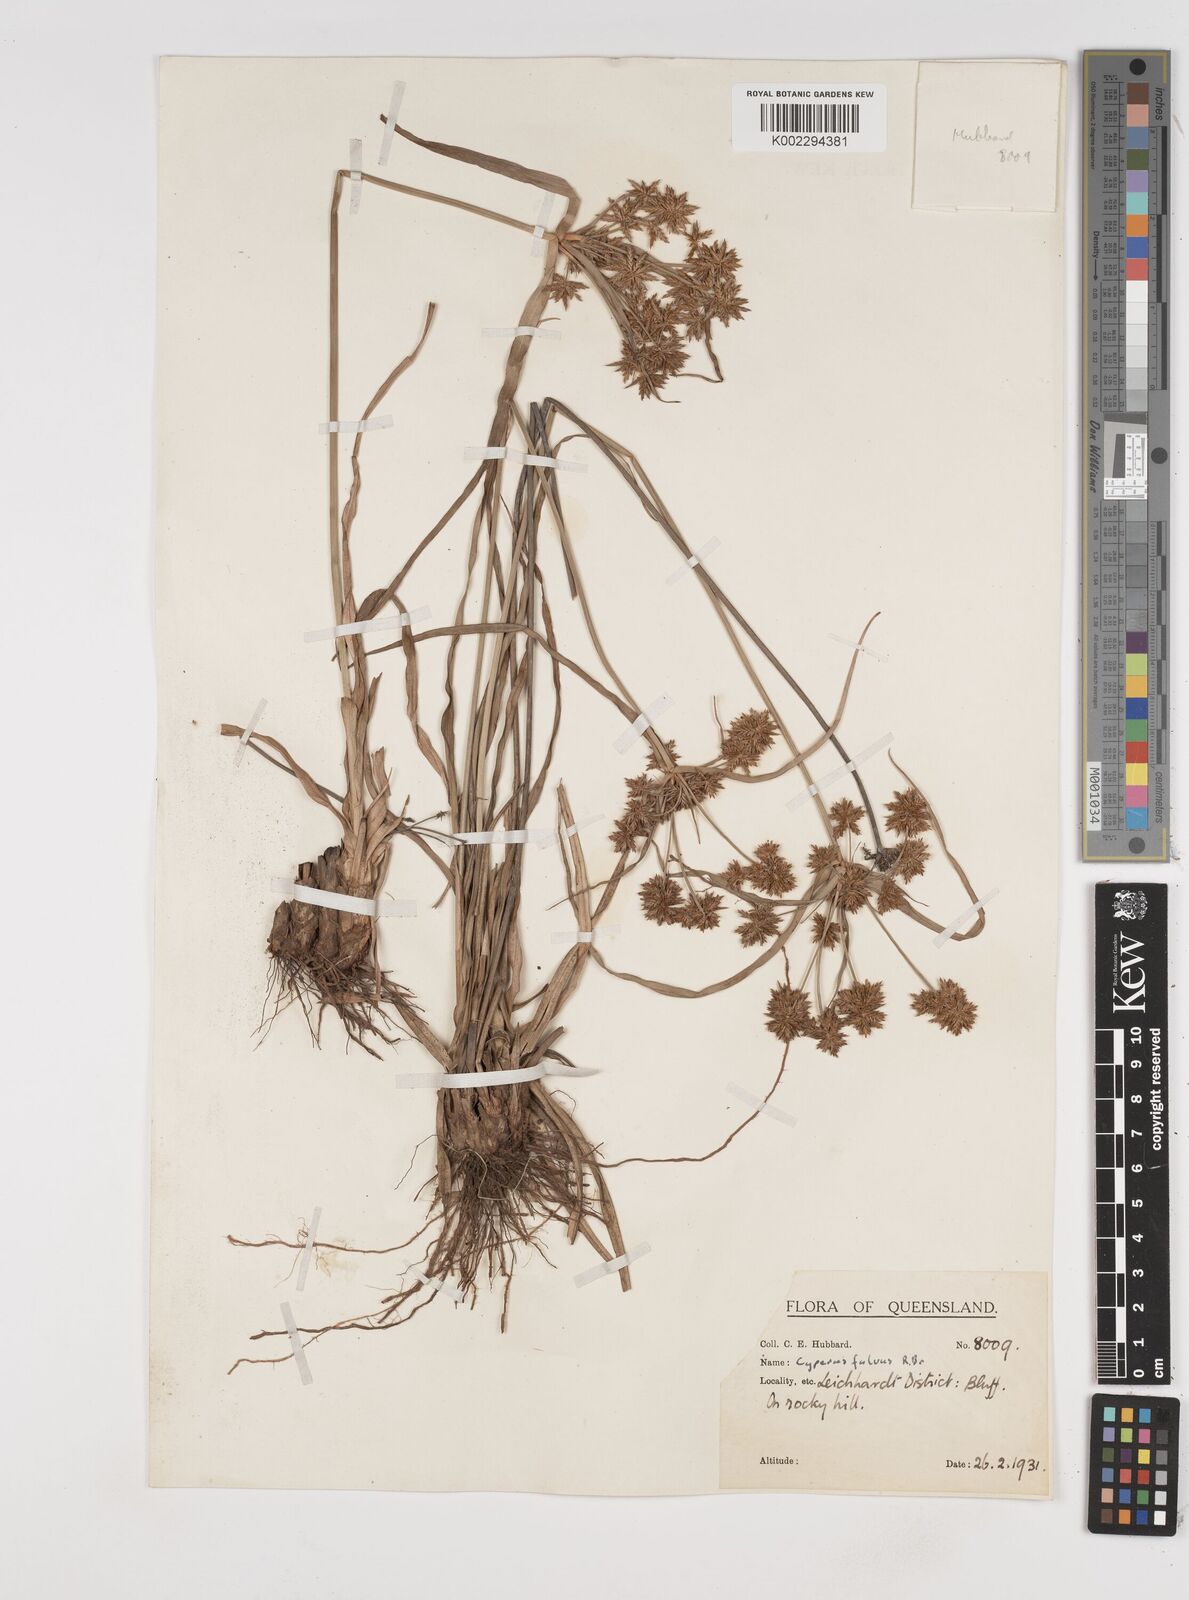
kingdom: Plantae
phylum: Tracheophyta
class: Liliopsida
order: Poales
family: Cyperaceae
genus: Cyperus
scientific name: Cyperus fulvus
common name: Sticky sedge
